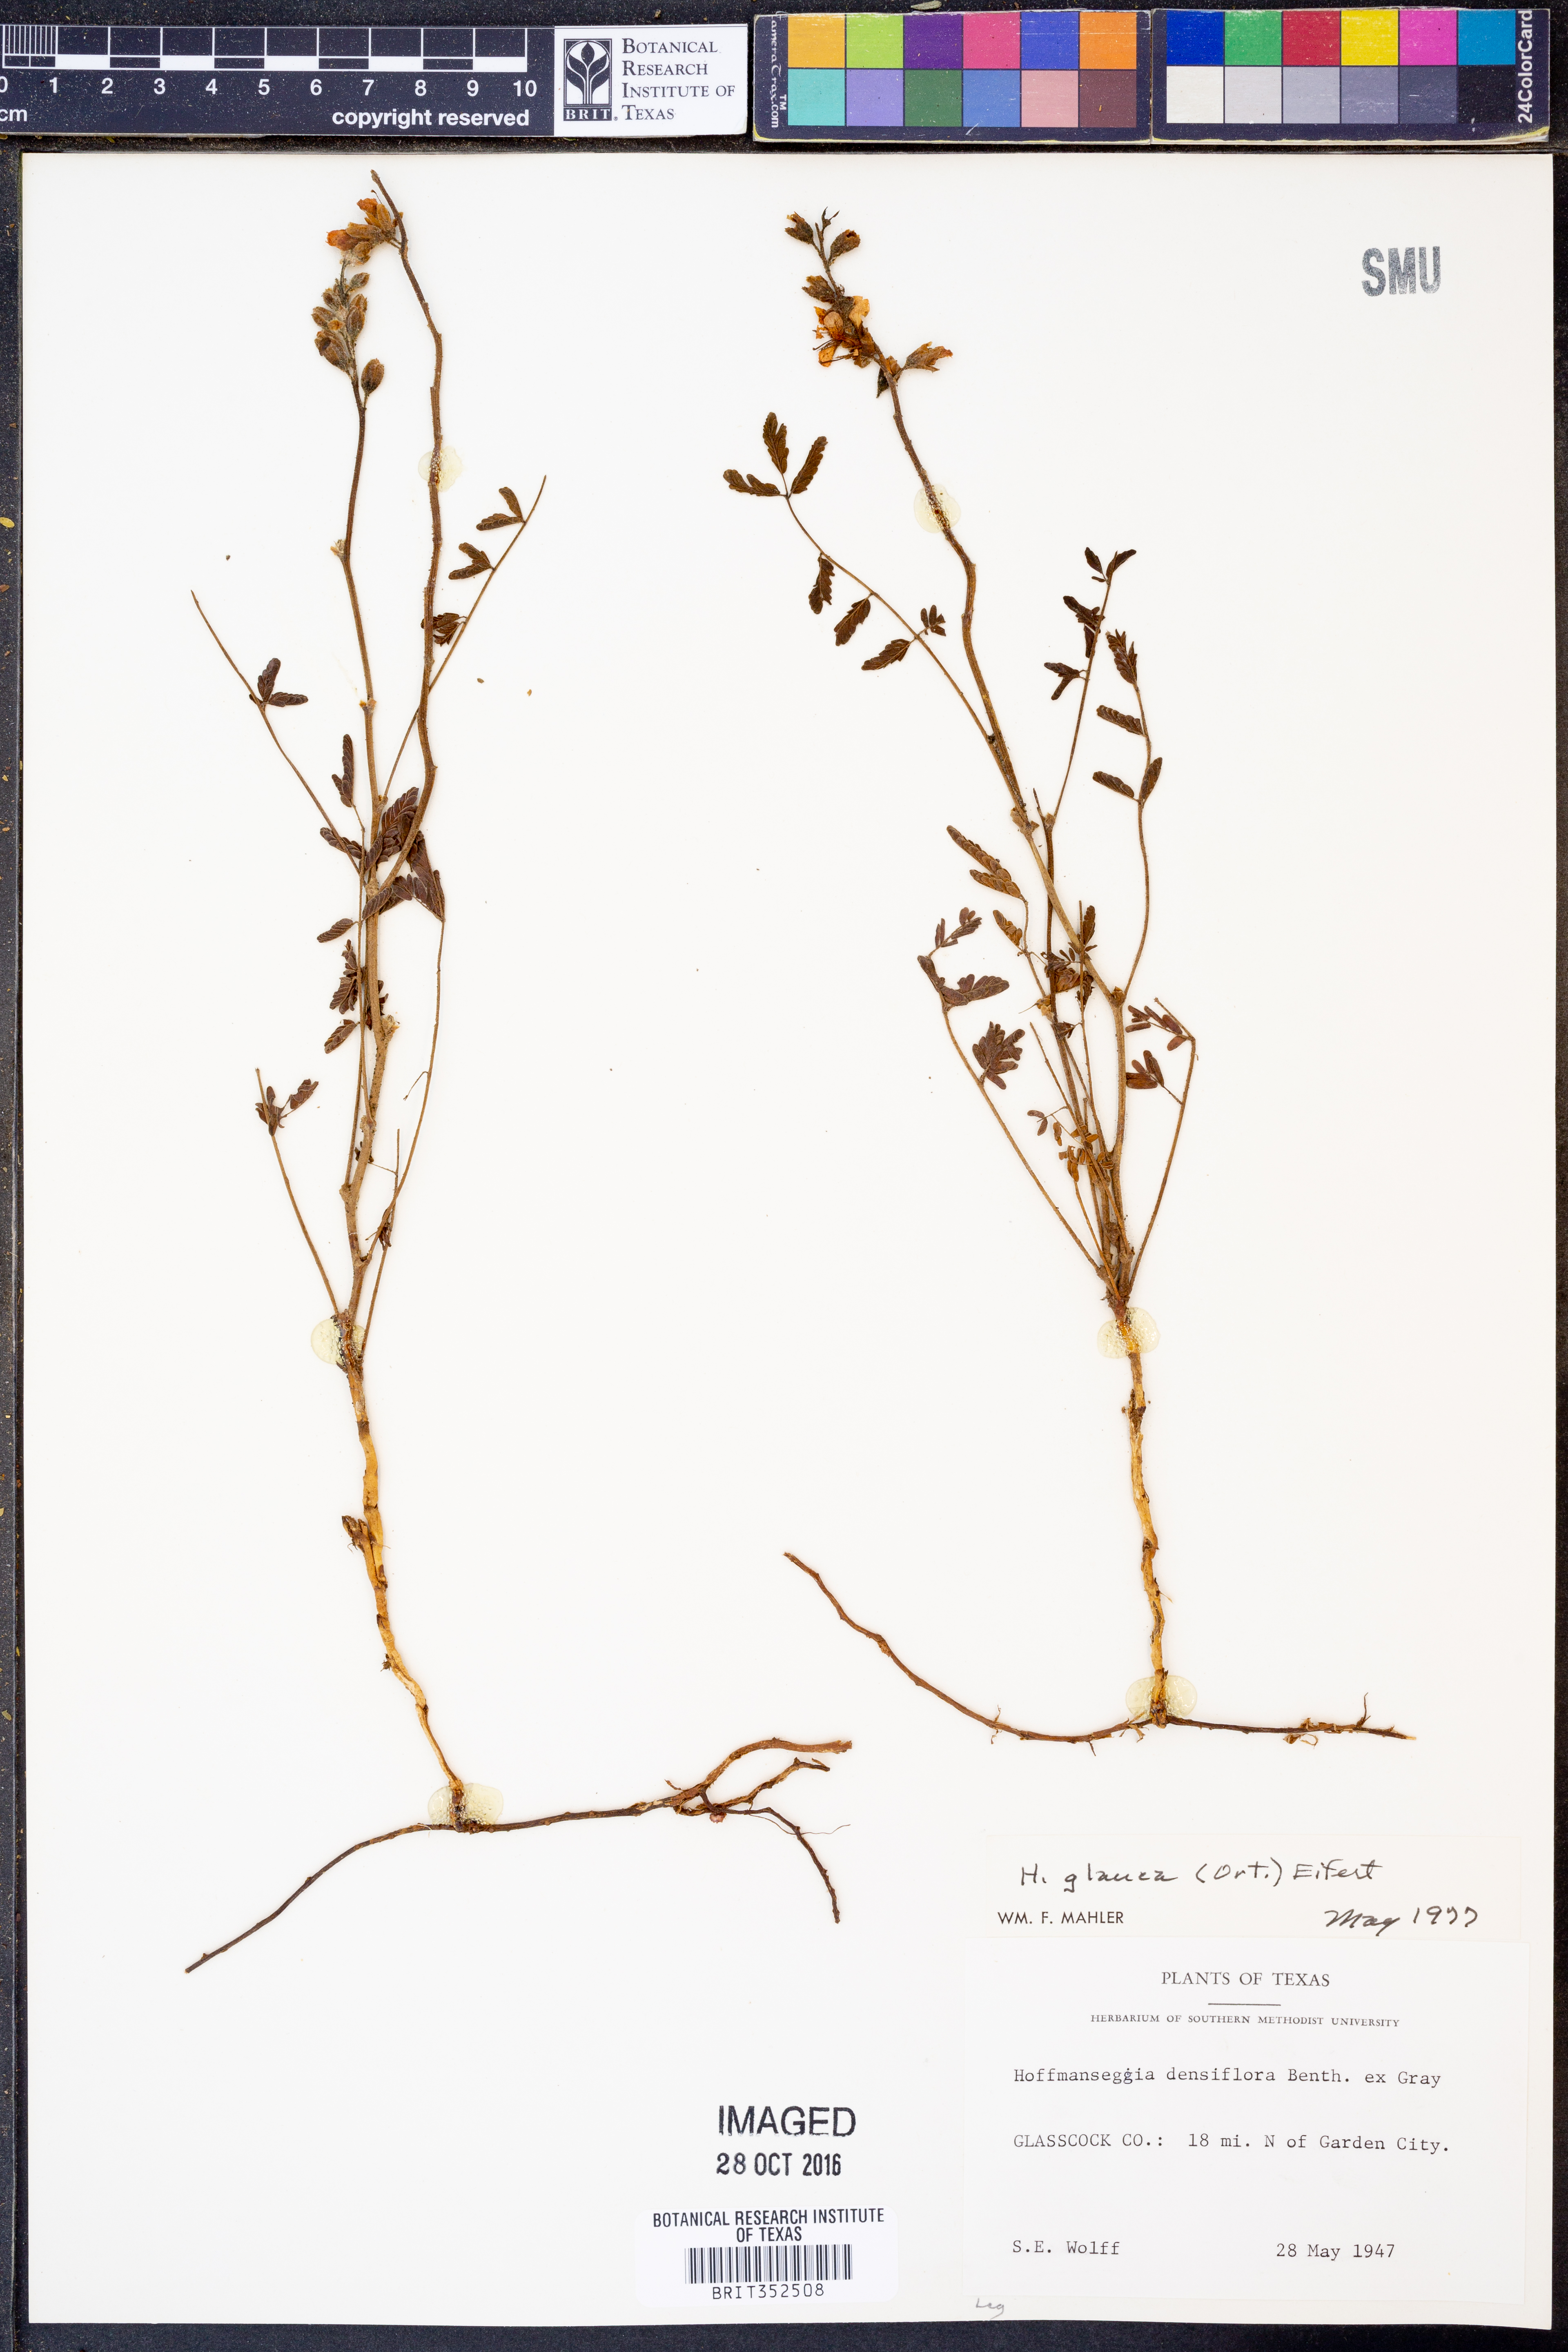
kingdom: Plantae
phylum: Tracheophyta
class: Magnoliopsida
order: Fabales
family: Fabaceae
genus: Hoffmannseggia
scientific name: Hoffmannseggia glauca
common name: Pignut
